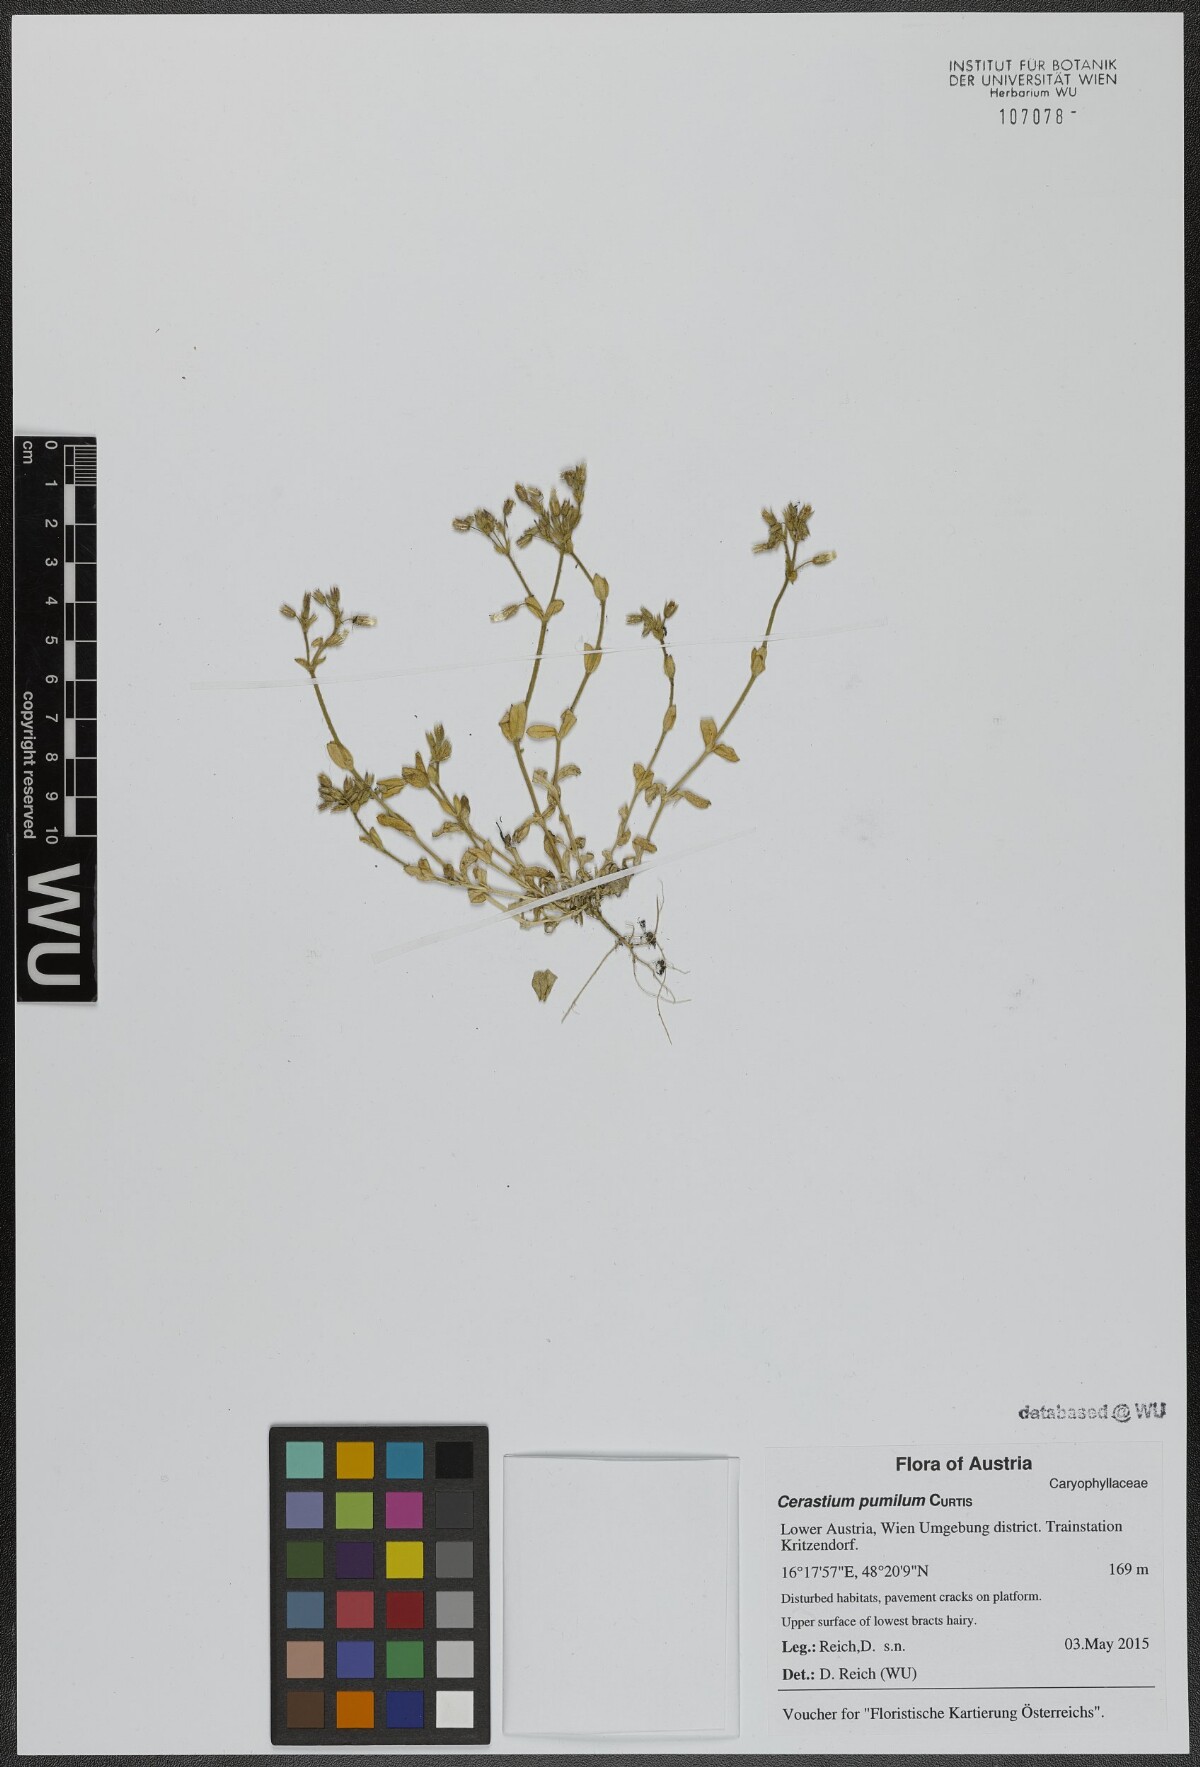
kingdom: Plantae
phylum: Tracheophyta
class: Magnoliopsida
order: Caryophyllales
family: Caryophyllaceae
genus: Cerastium
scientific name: Cerastium pumilum
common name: Dwarf mouse-ear
